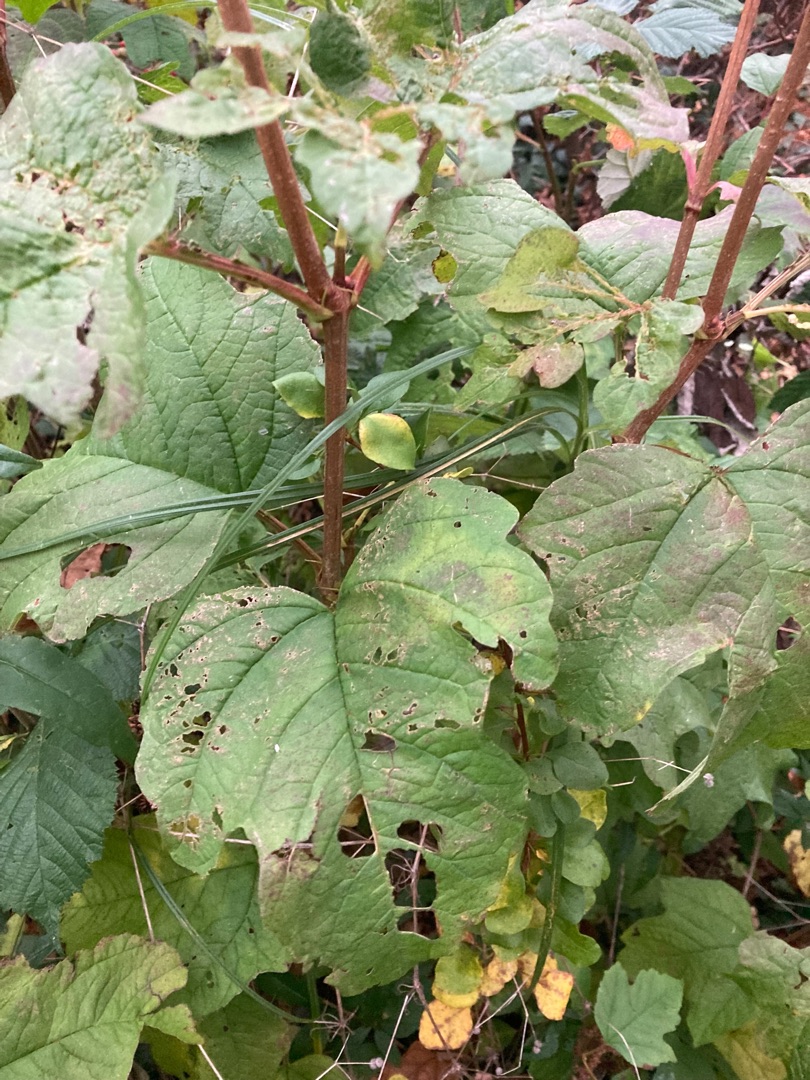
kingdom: Plantae
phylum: Tracheophyta
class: Magnoliopsida
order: Dipsacales
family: Viburnaceae
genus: Viburnum
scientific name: Viburnum opulus
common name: Kvalkved
